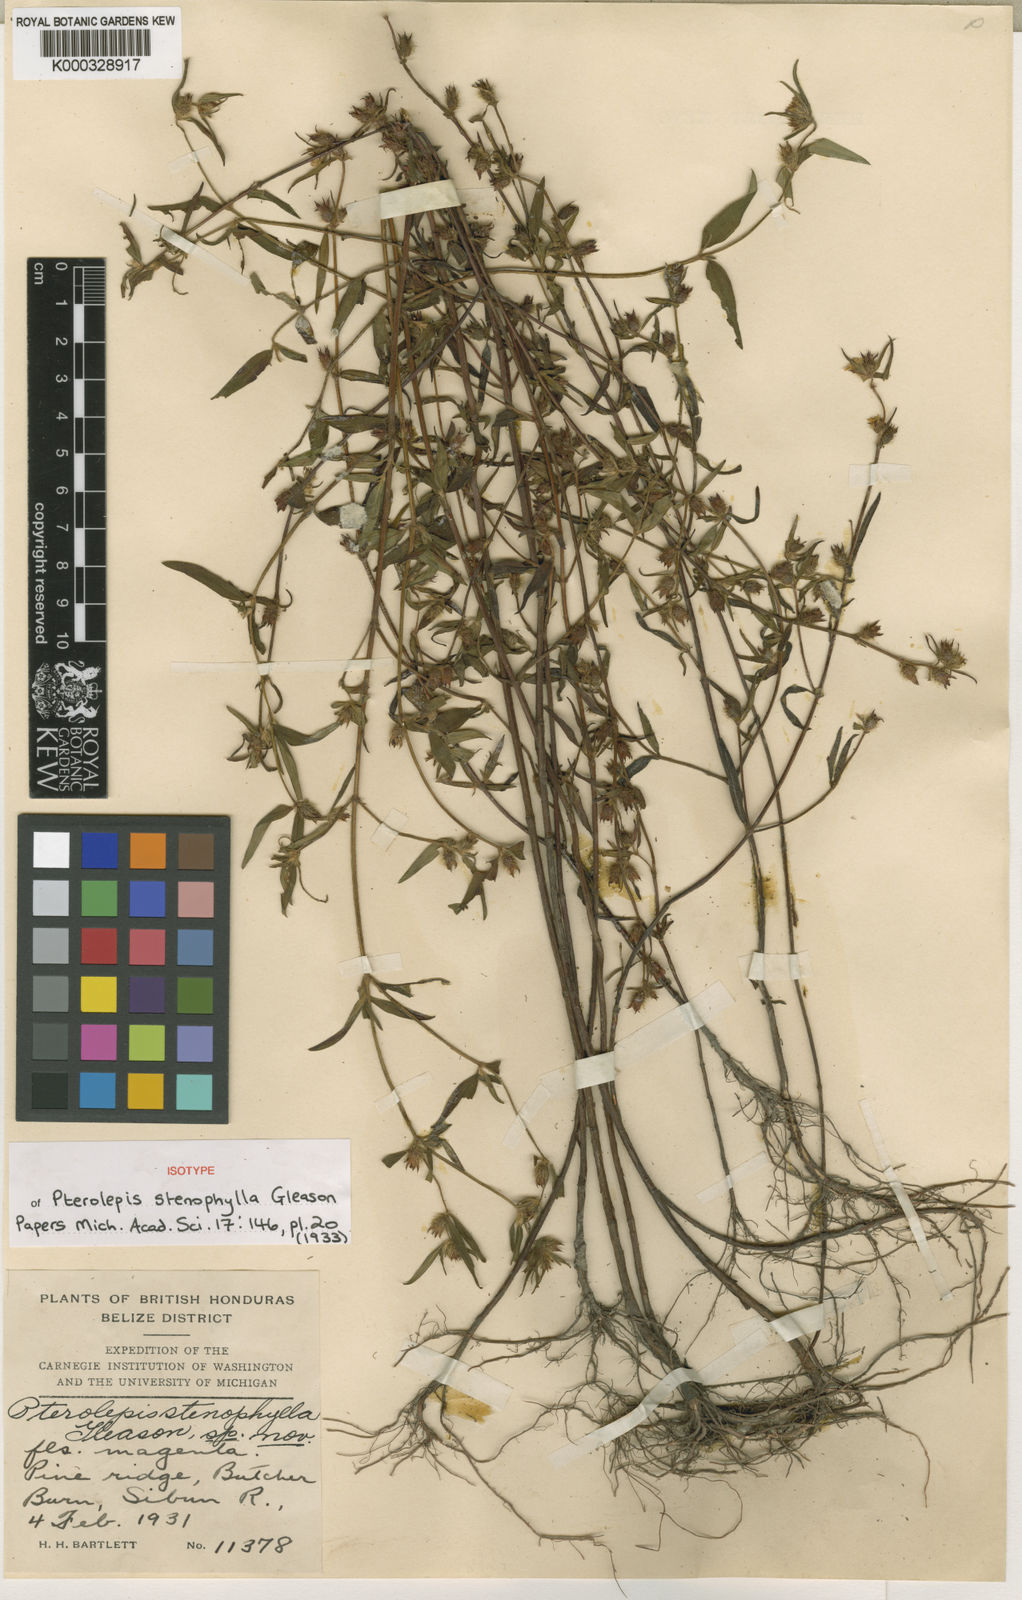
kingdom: Plantae
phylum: Tracheophyta
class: Magnoliopsida
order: Myrtales
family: Melastomataceae
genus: Pterolepis
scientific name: Pterolepis stenophylla
